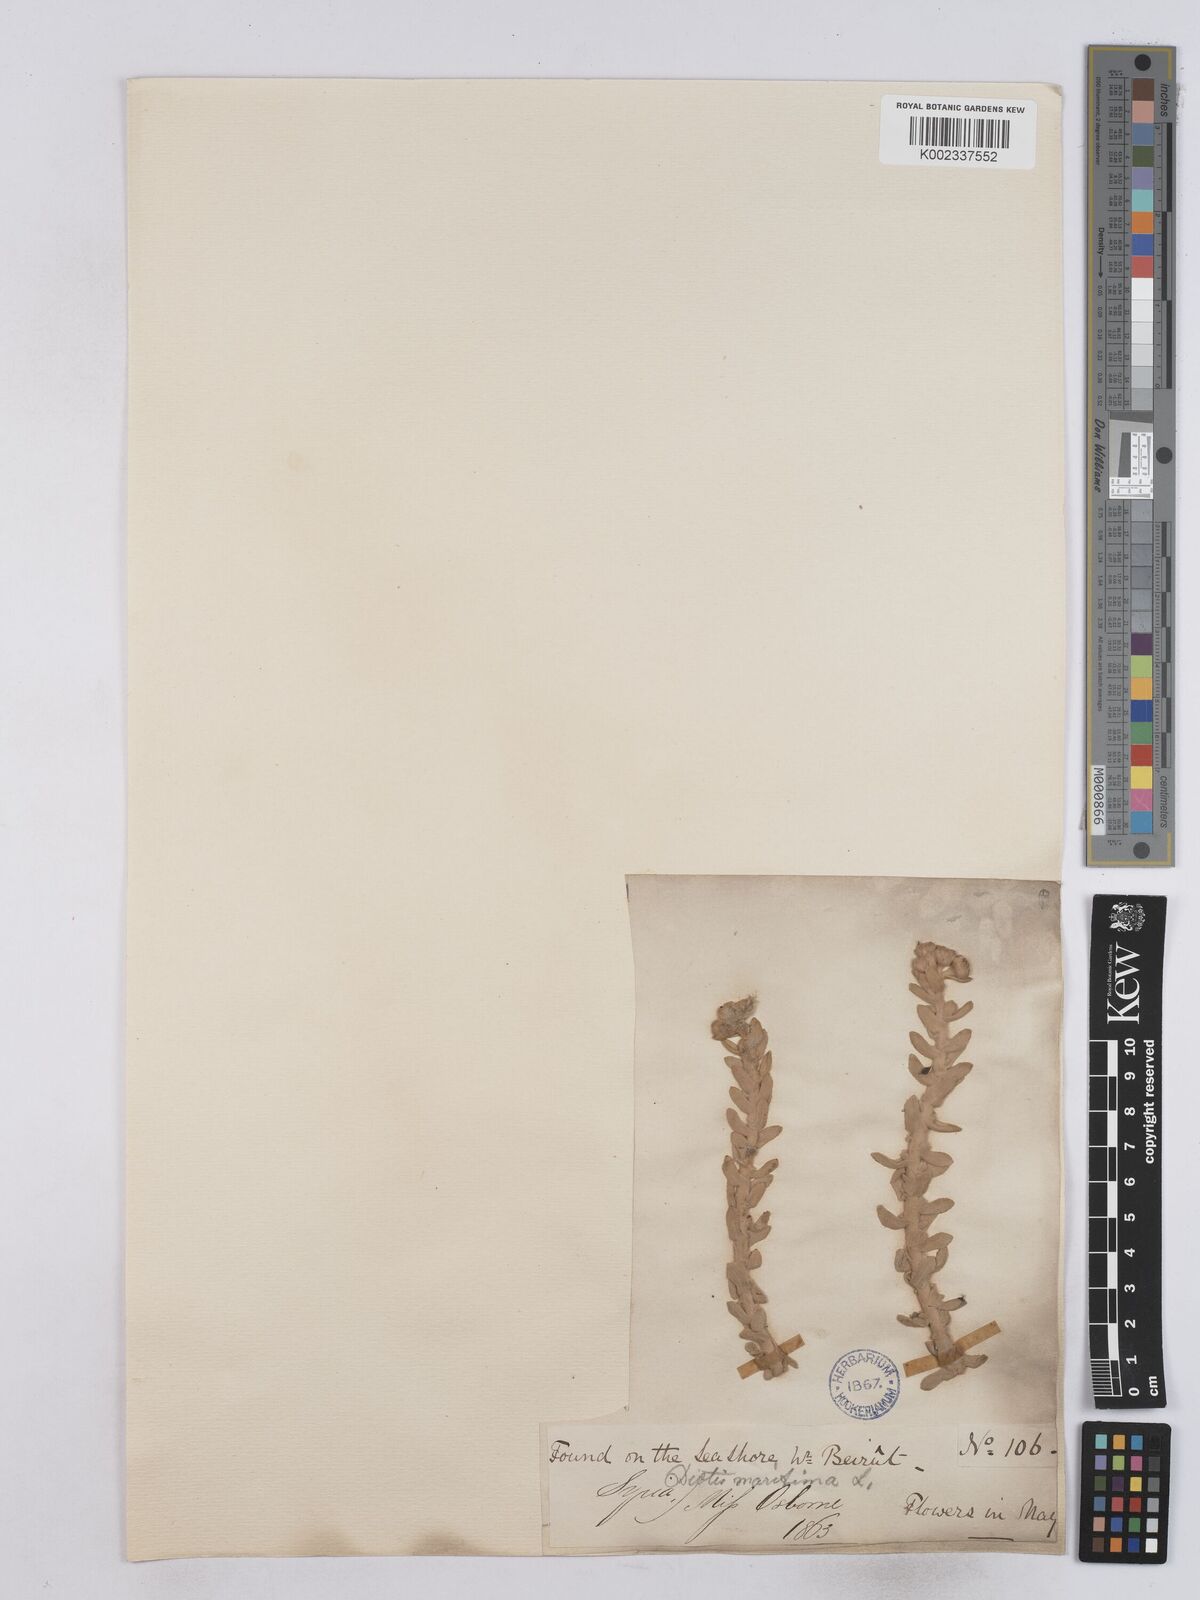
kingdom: Plantae
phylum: Tracheophyta
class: Magnoliopsida
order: Asterales
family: Asteraceae
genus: Achillea
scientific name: Achillea maritima
